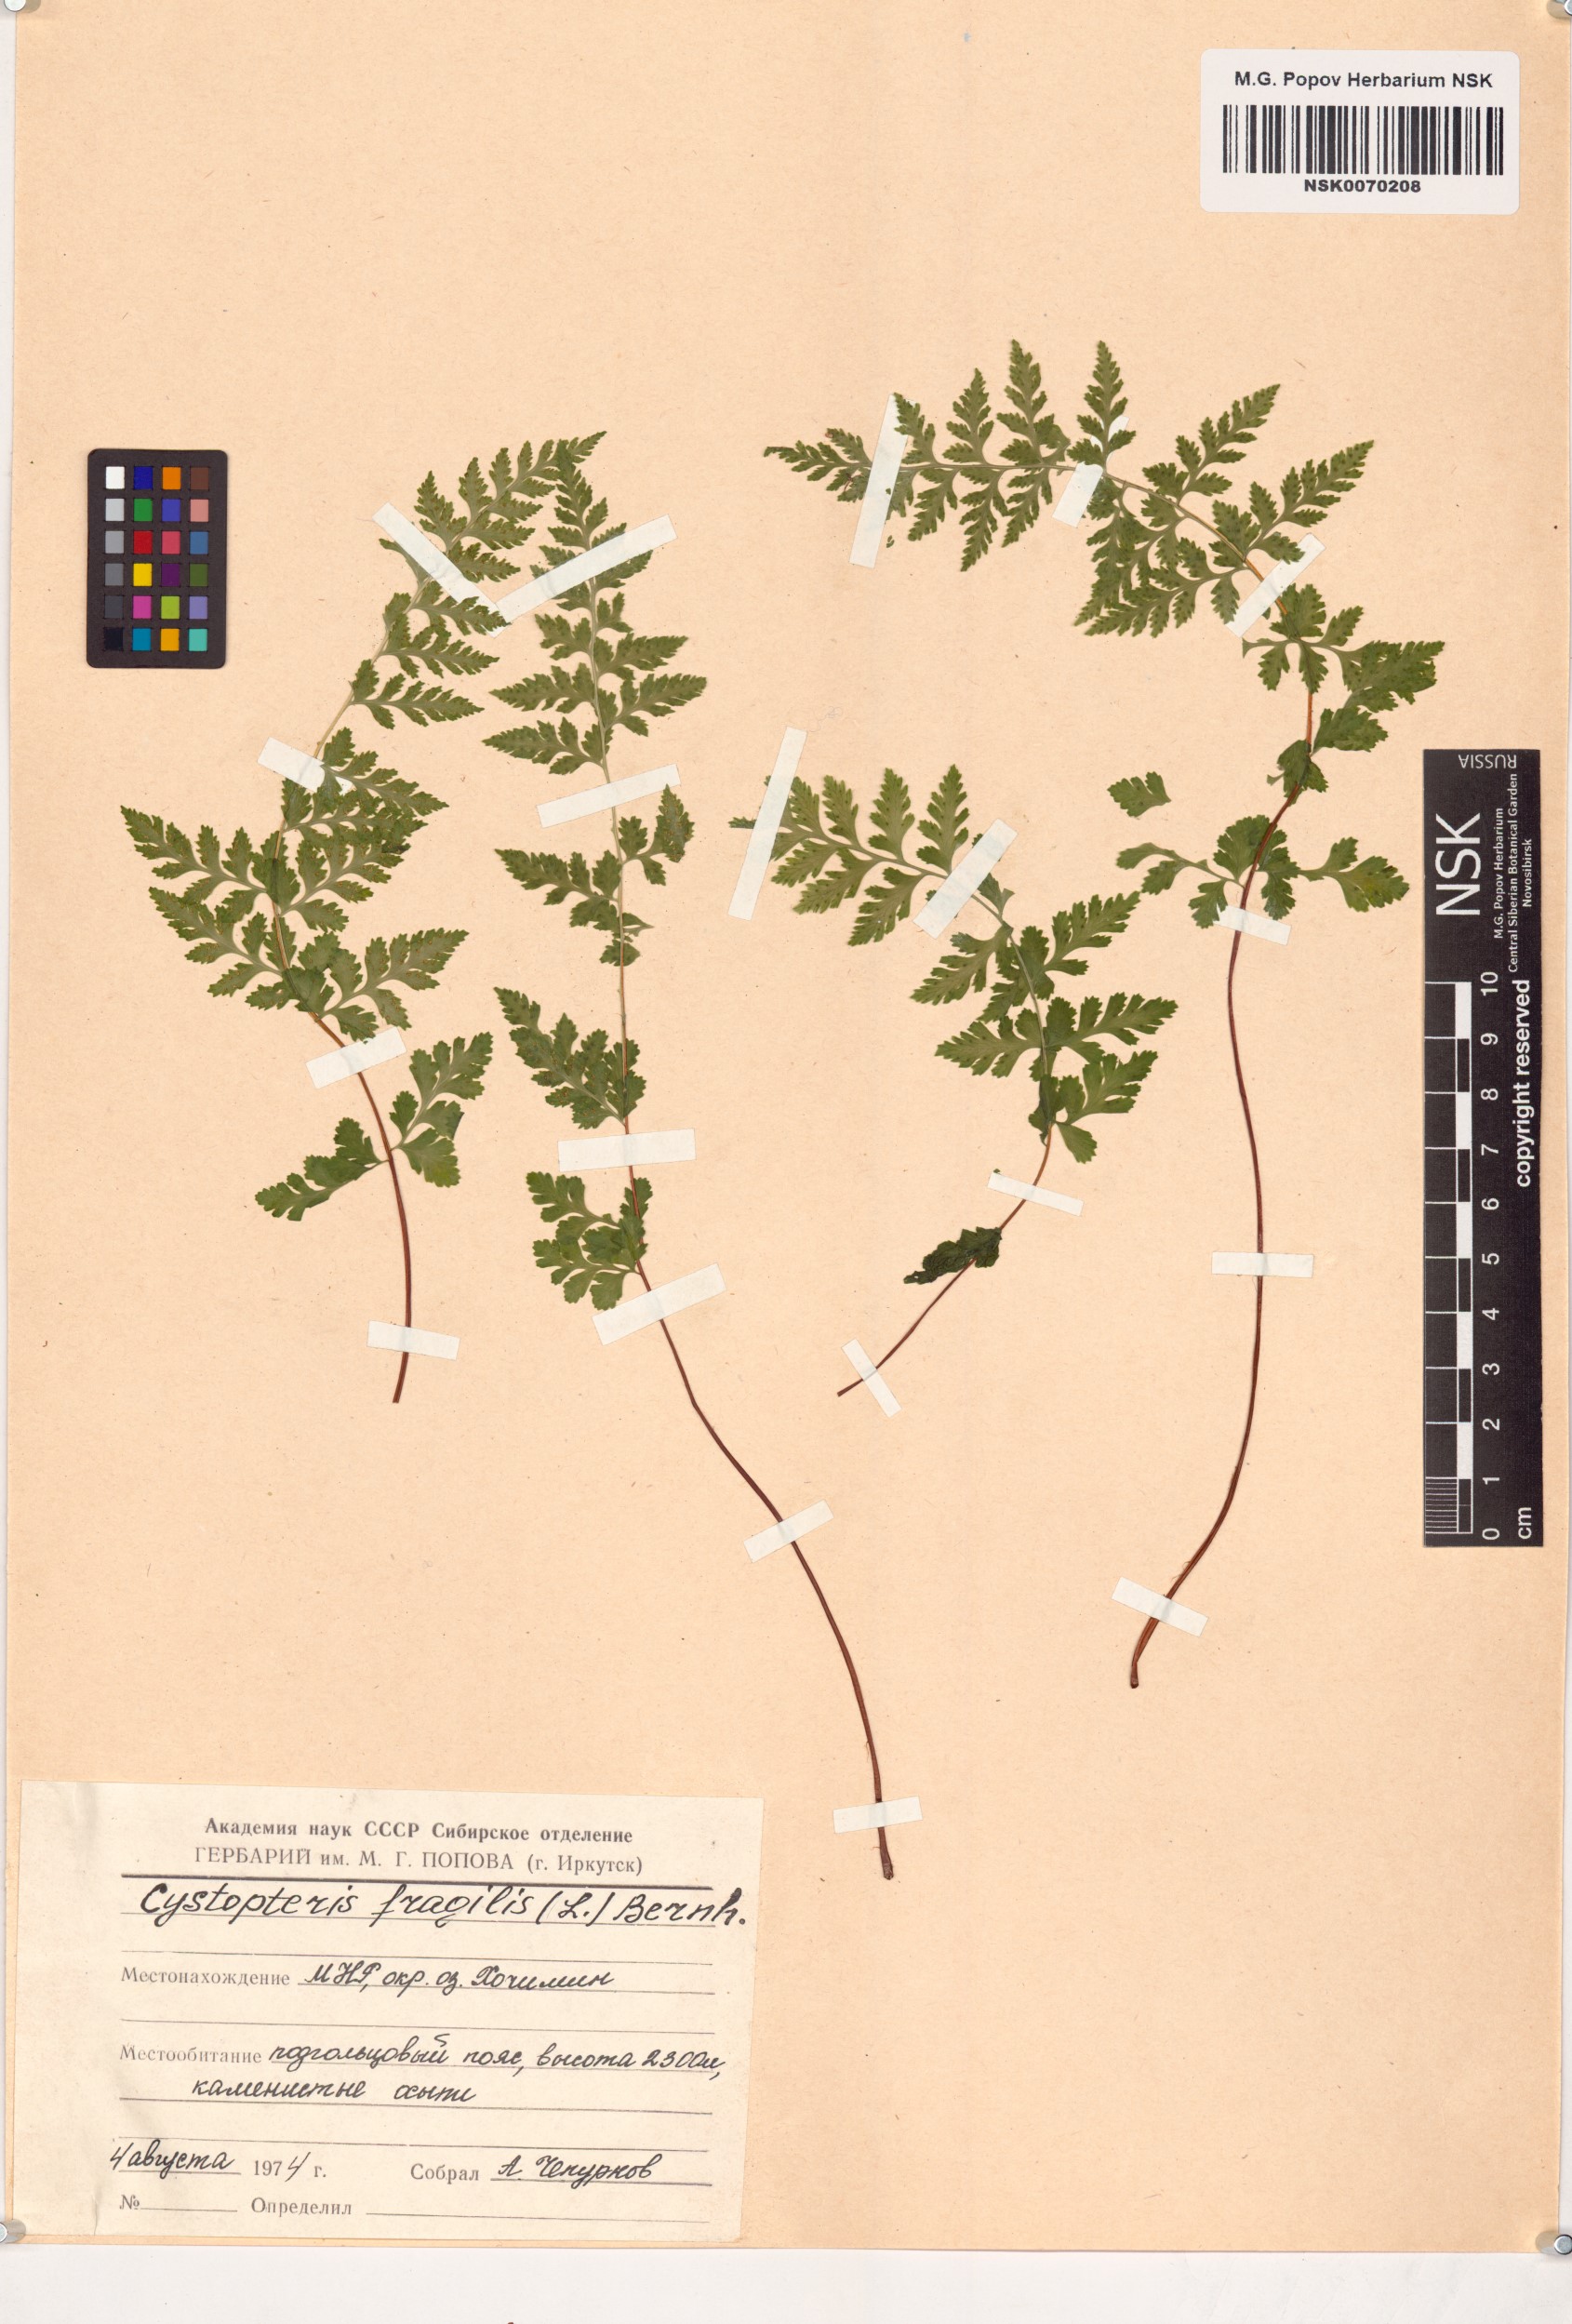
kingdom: Plantae
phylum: Tracheophyta
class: Polypodiopsida
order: Polypodiales
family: Cystopteridaceae
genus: Cystopteris
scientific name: Cystopteris fragilis
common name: Brittle bladder fern
